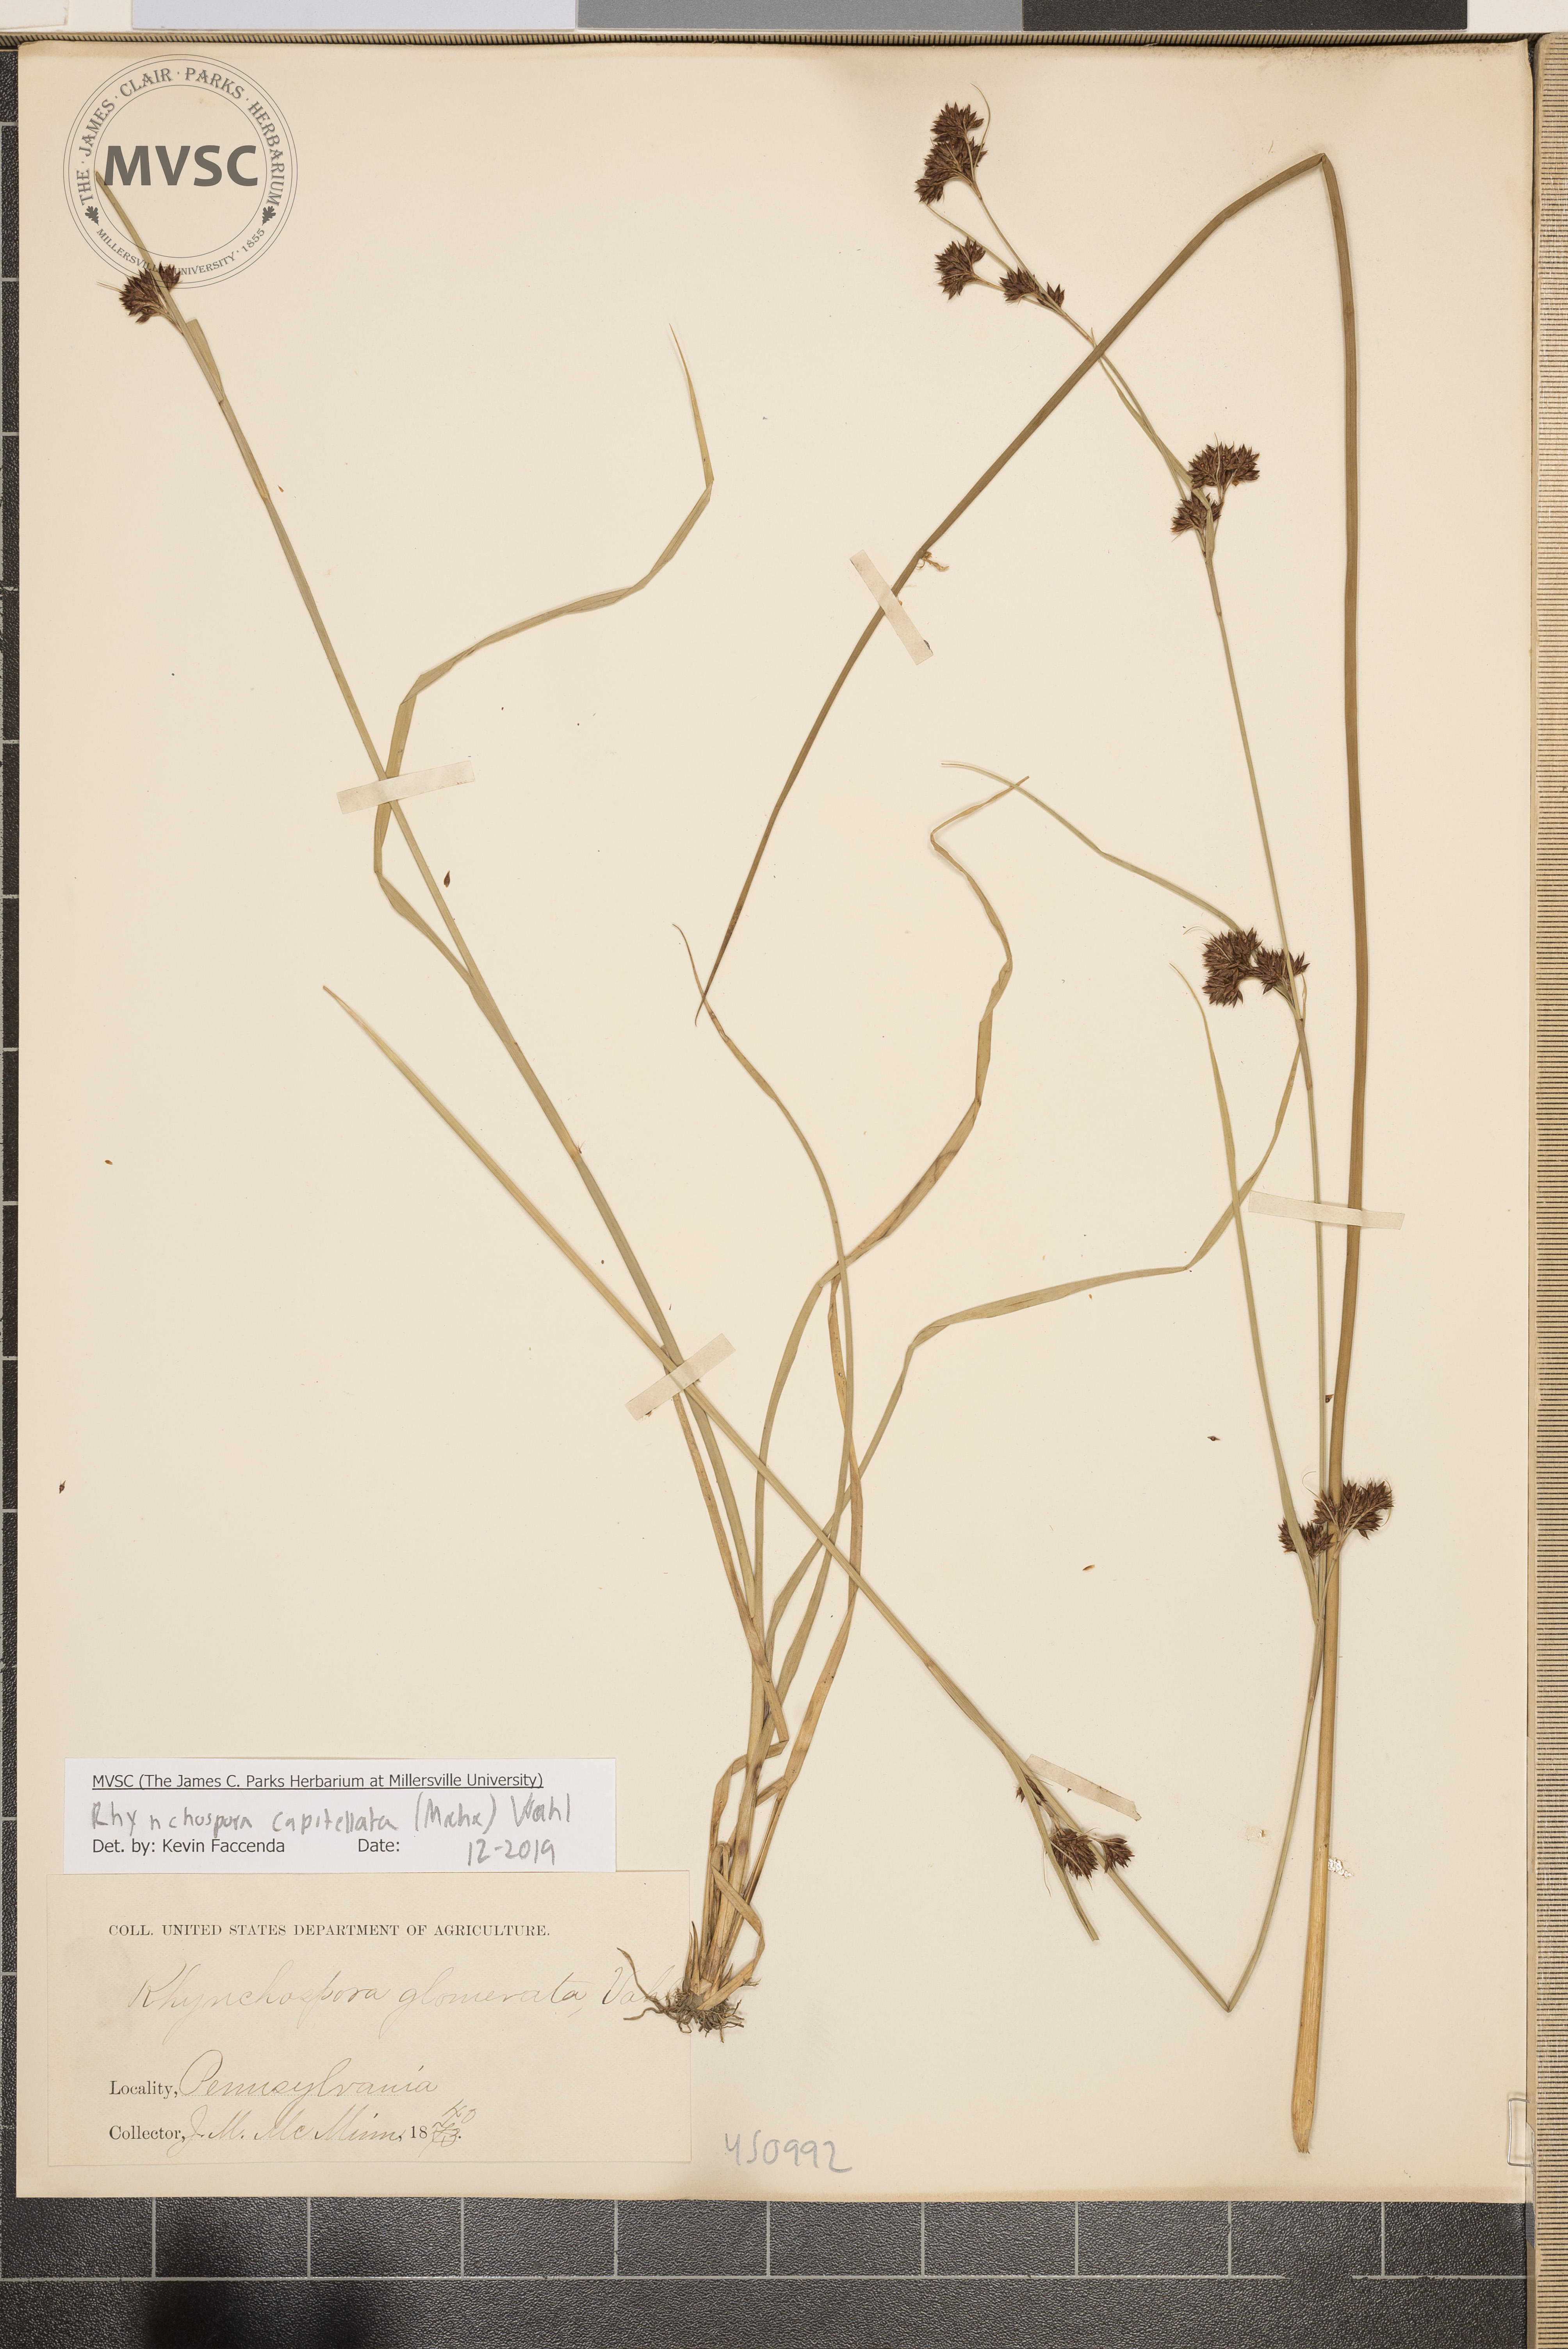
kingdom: Plantae
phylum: Tracheophyta
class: Liliopsida
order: Poales
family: Cyperaceae
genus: Rhynchospora
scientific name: Rhynchospora capitellata
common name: Brownish beaksedge
